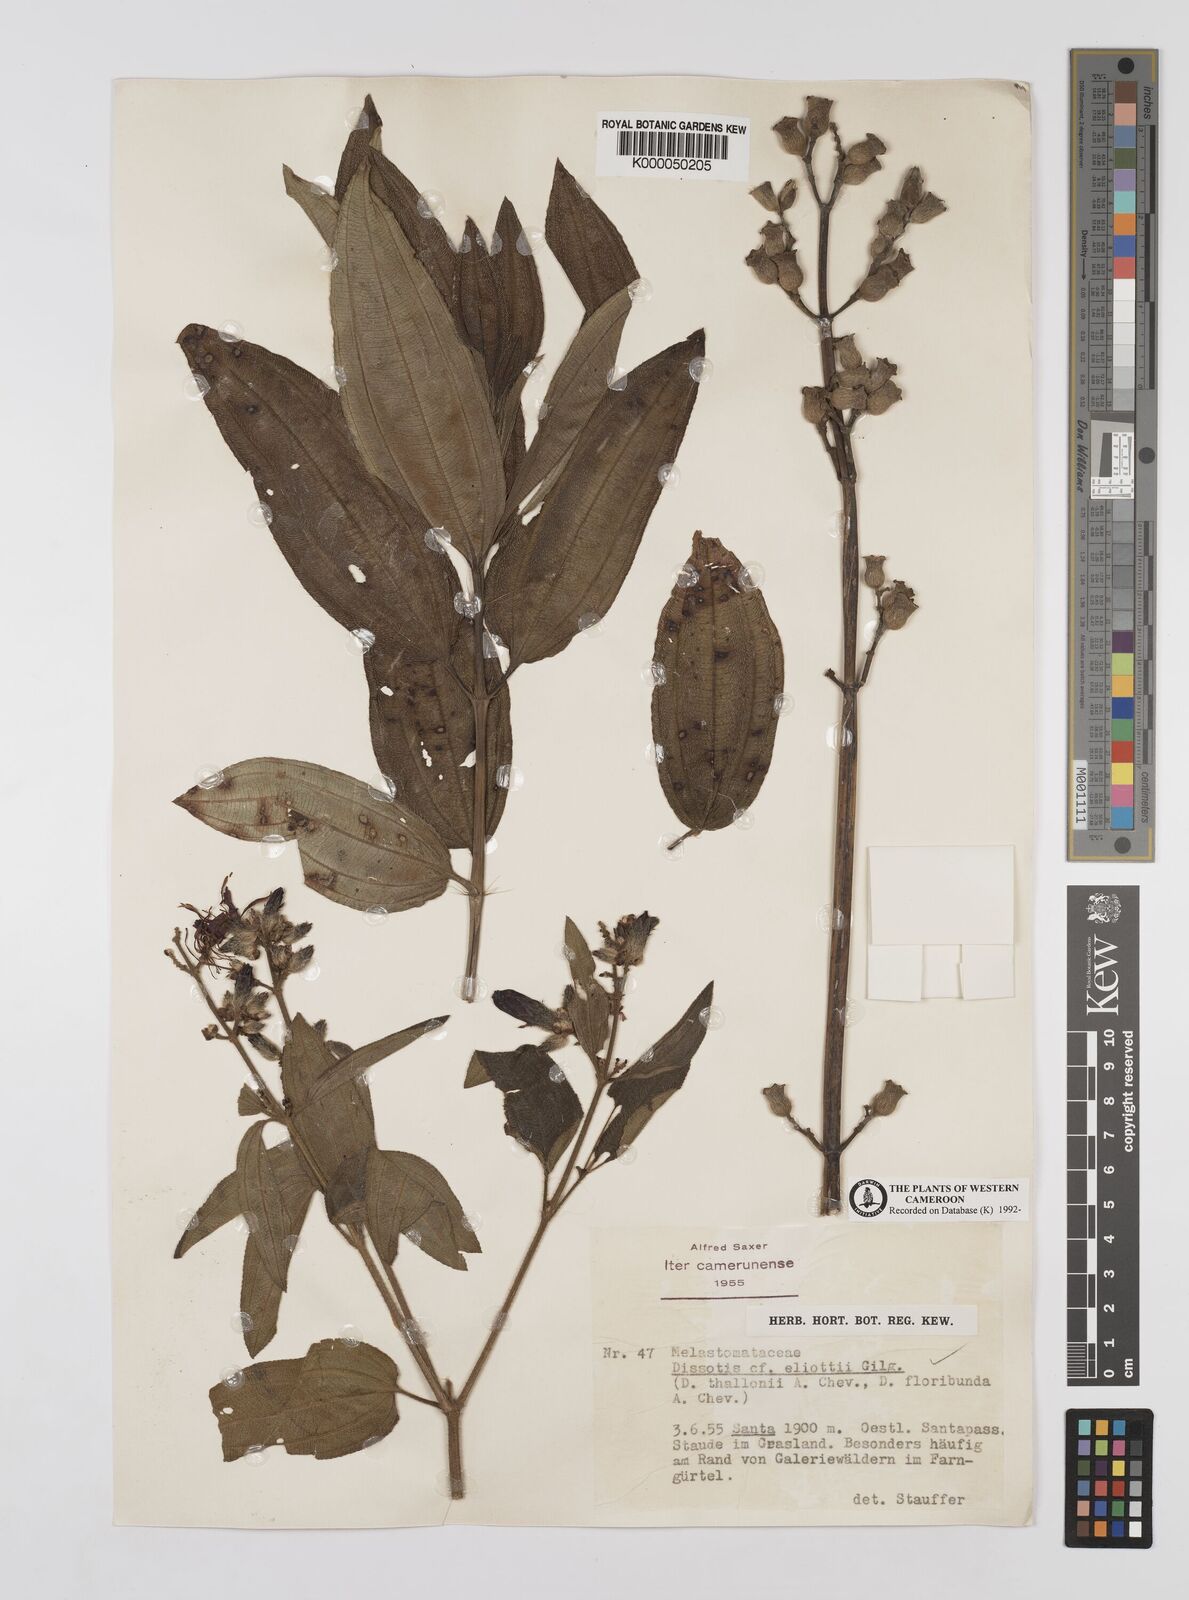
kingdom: Plantae
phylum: Tracheophyta
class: Magnoliopsida
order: Myrtales
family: Melastomataceae
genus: Dissotis
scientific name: Dissotis
